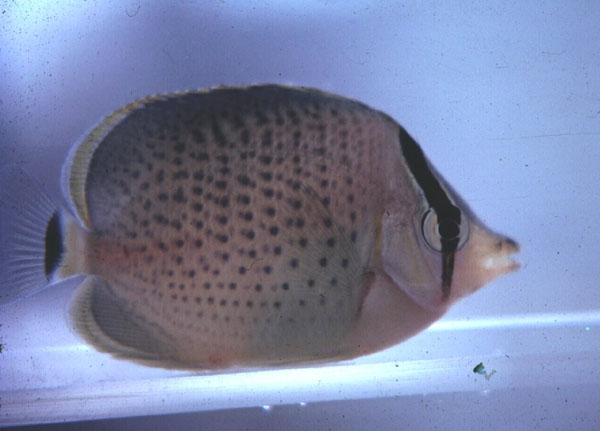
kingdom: Animalia
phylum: Chordata
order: Perciformes
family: Chaetodontidae
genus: Chaetodon
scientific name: Chaetodon guttatissimus
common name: Spotted butterflyfish
